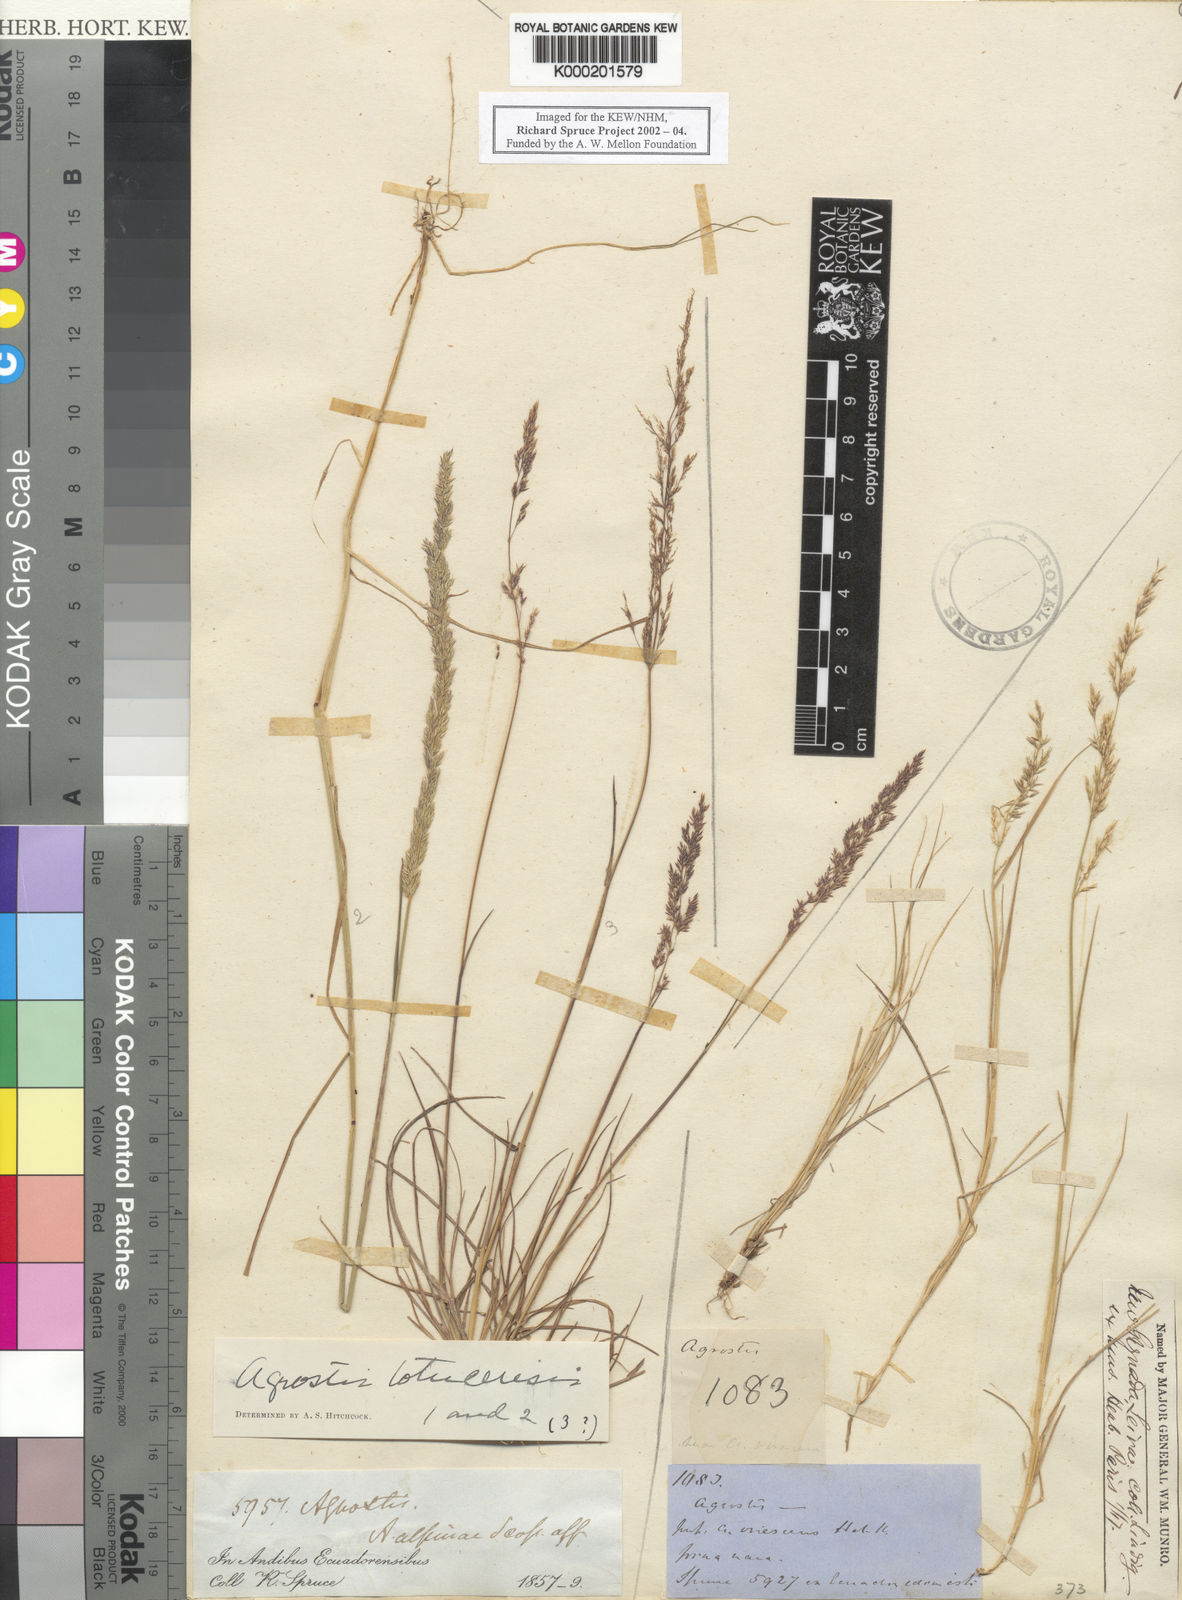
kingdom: Plantae
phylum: Tracheophyta
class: Liliopsida
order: Poales
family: Poaceae
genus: Agrostis
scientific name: Agrostis tolucensis
